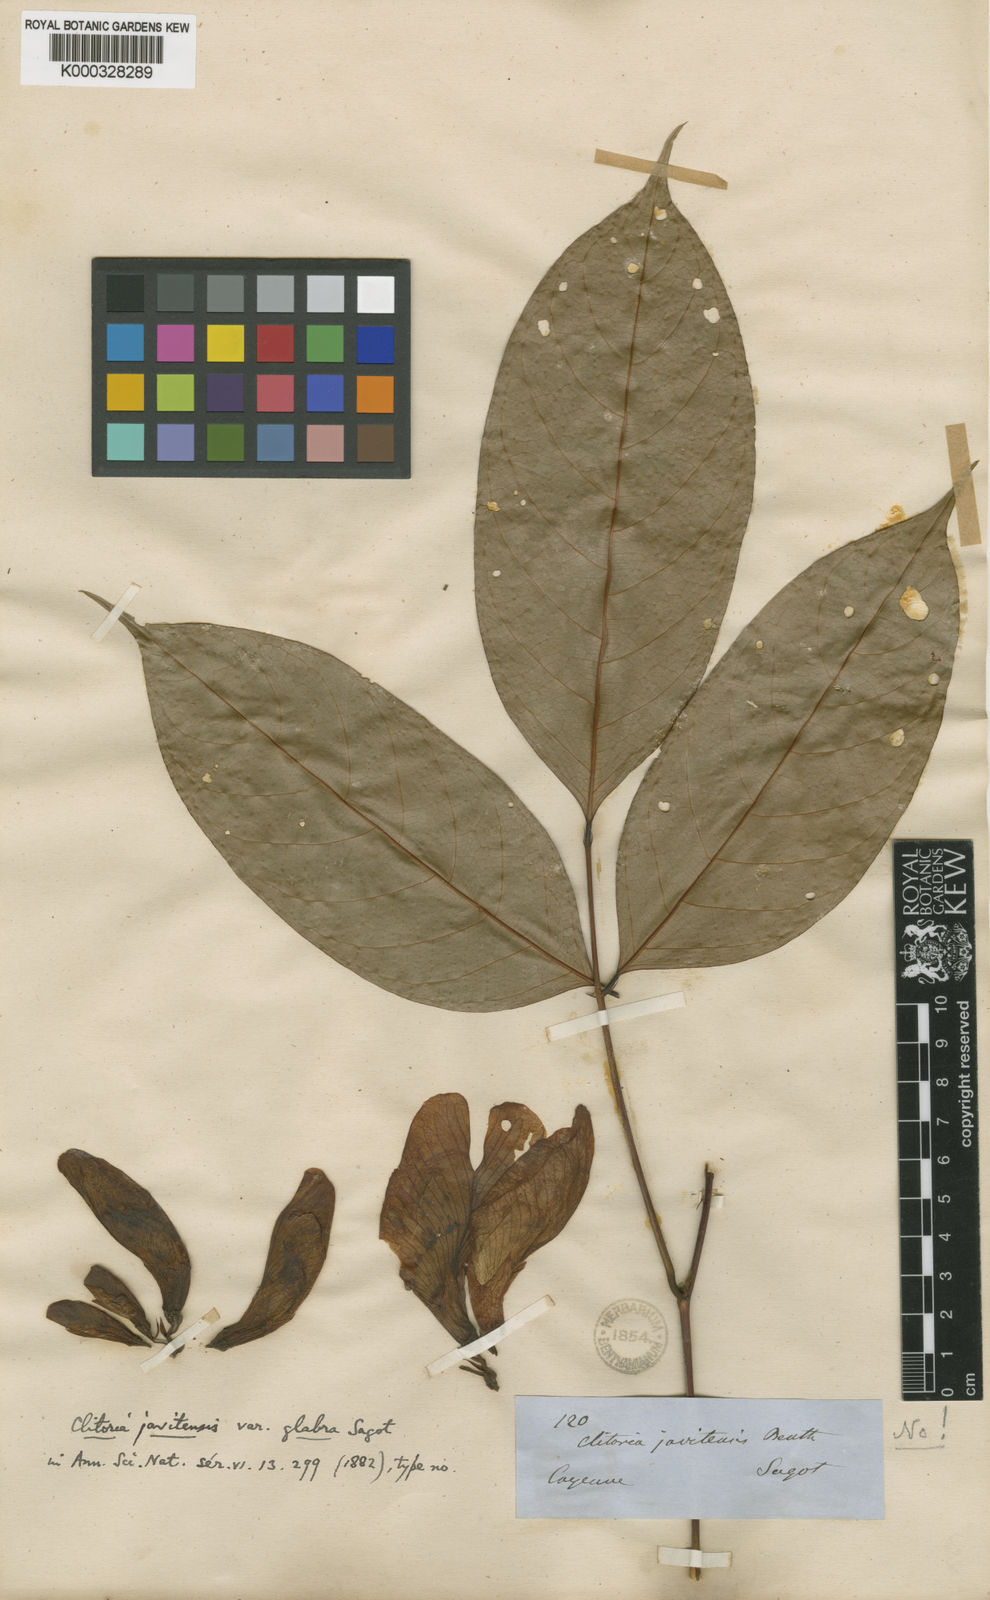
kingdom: Plantae
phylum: Tracheophyta
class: Magnoliopsida
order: Fabales
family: Fabaceae
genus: Clitoria
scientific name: Clitoria sagotii
